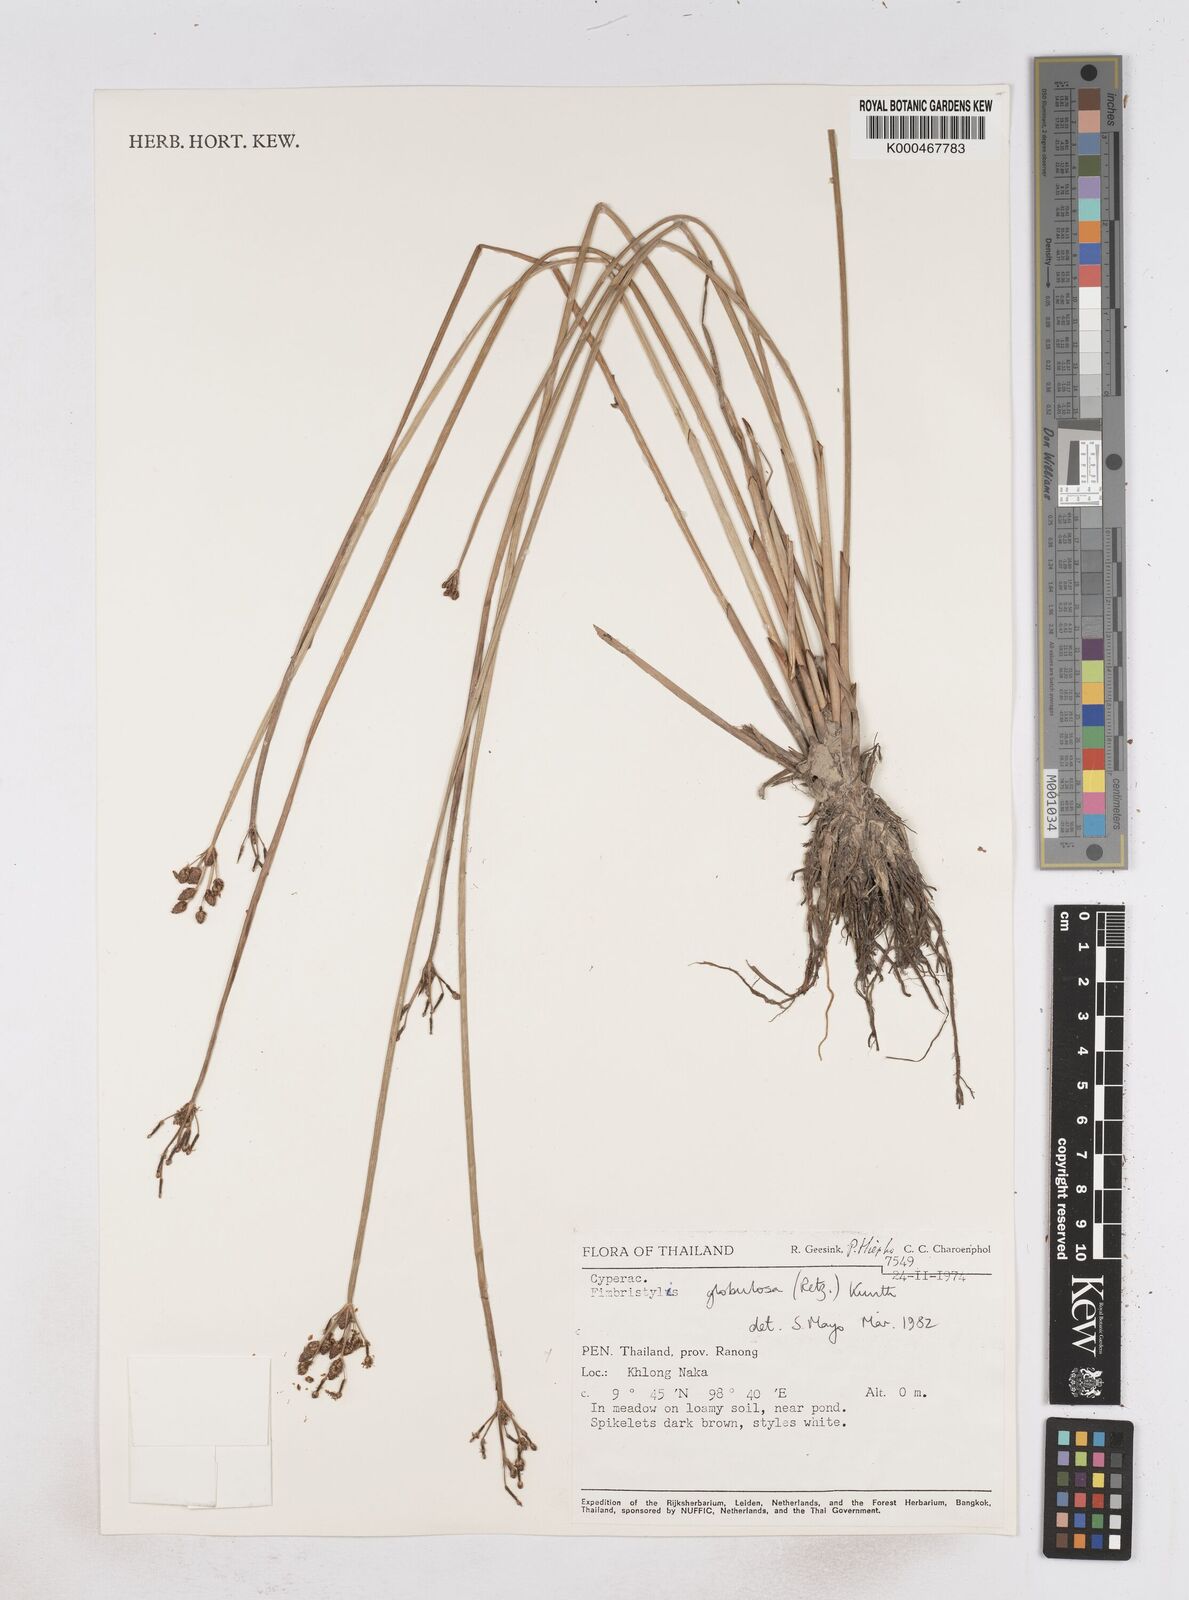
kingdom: Plantae
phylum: Tracheophyta
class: Liliopsida
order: Poales
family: Cyperaceae
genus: Fimbristylis
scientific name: Fimbristylis umbellaris
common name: Globular fimbristylis
